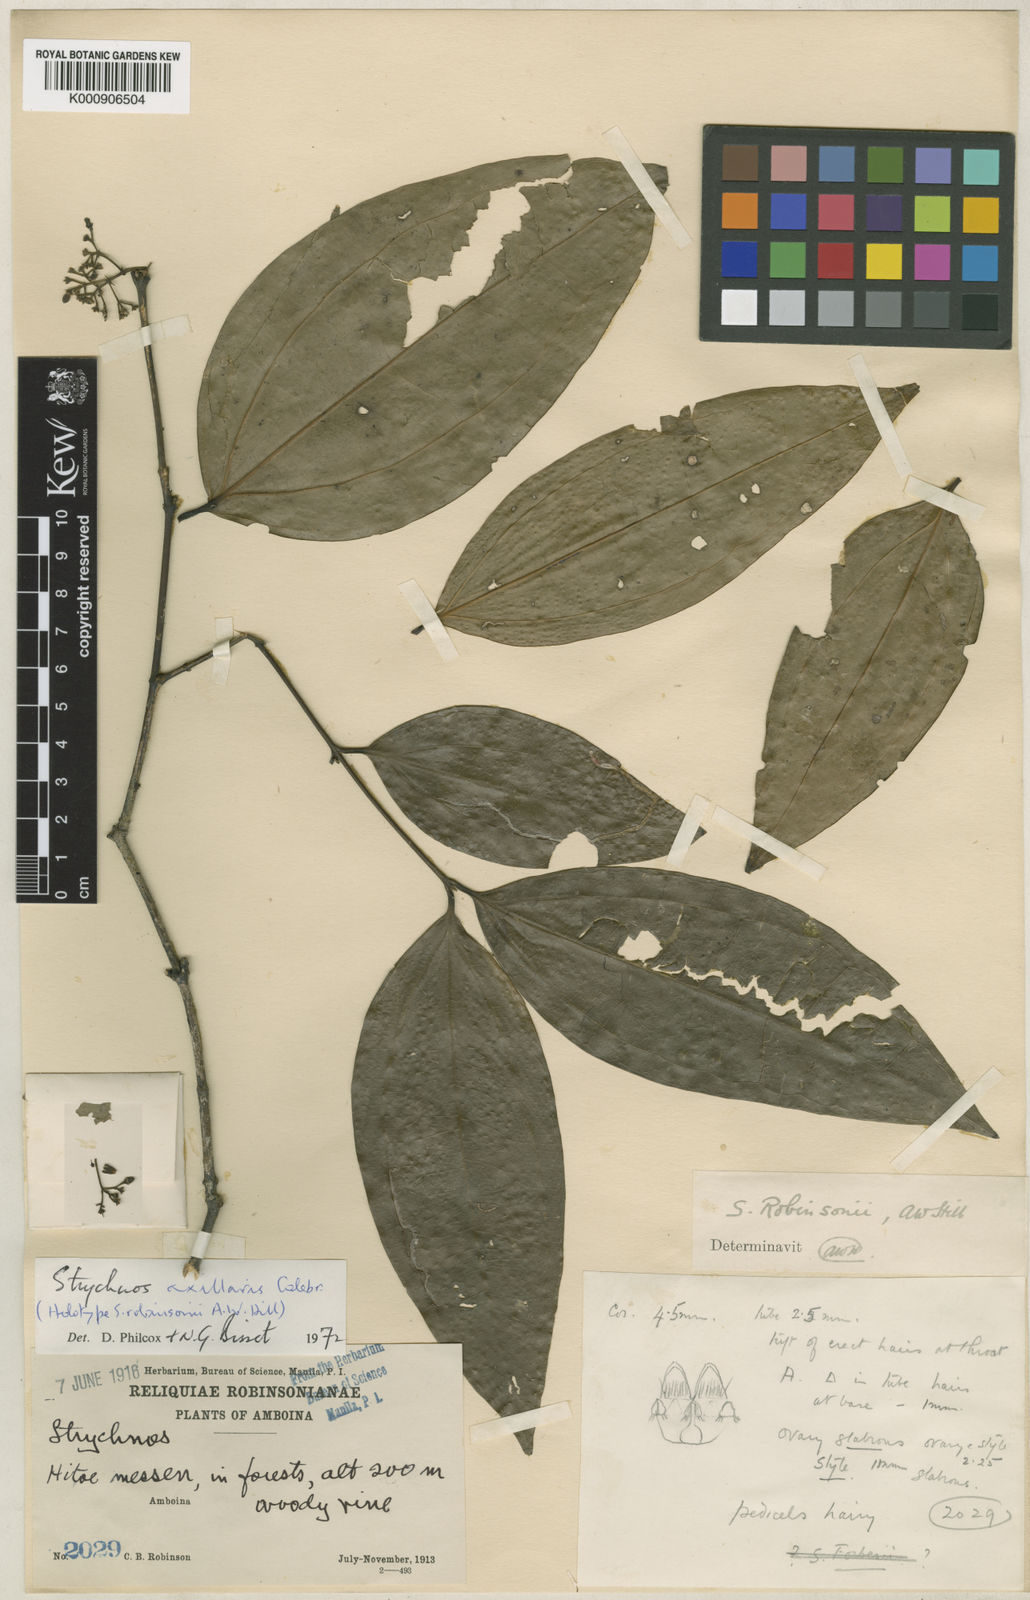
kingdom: Plantae
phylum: Tracheophyta
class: Magnoliopsida
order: Gentianales
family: Loganiaceae
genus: Strychnos
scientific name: Strychnos axillaris
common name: Strychninebush
